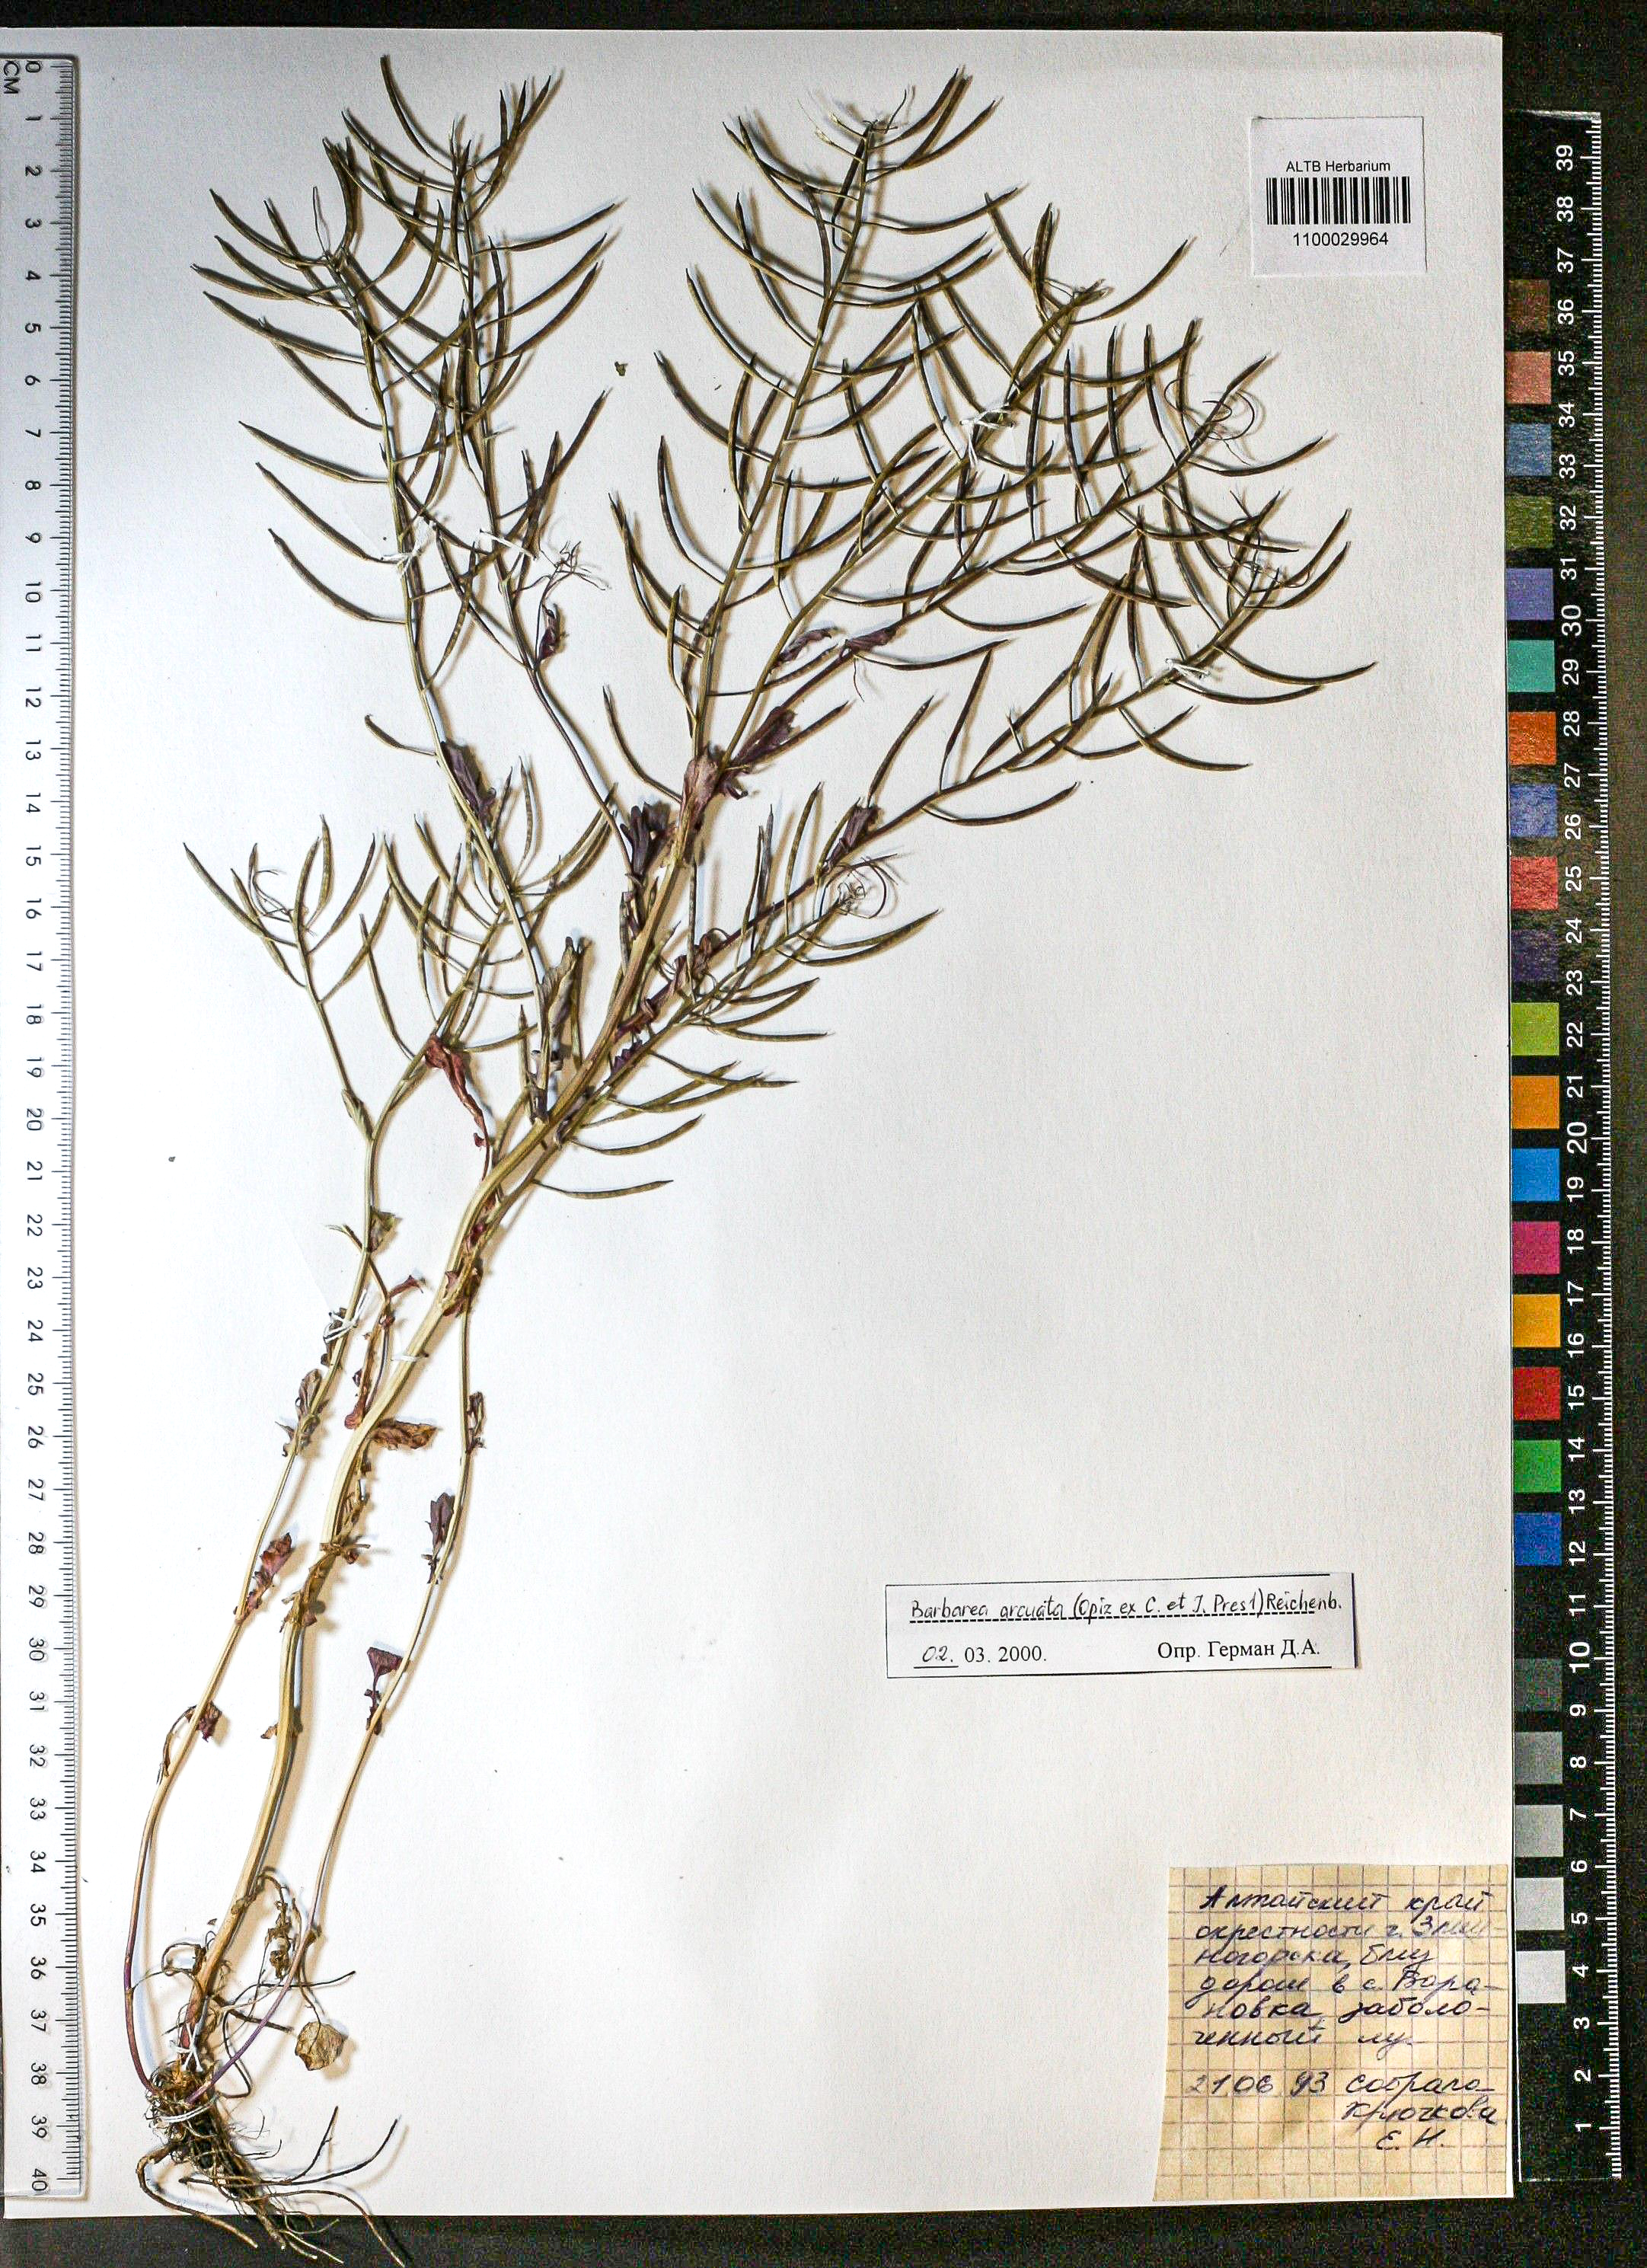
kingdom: Plantae
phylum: Tracheophyta
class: Magnoliopsida
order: Brassicales
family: Brassicaceae
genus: Barbarea
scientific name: Barbarea vulgaris
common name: Cressy-greens
